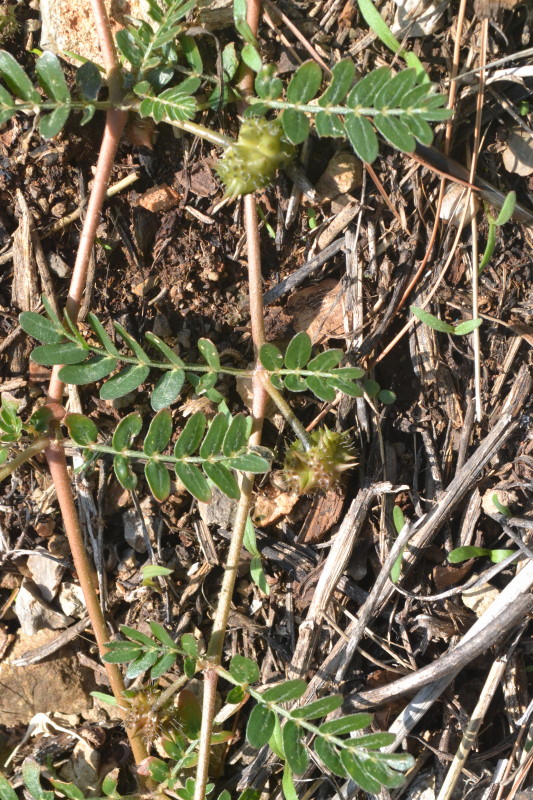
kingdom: Plantae
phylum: Tracheophyta
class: Magnoliopsida
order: Zygophyllales
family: Zygophyllaceae
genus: Tribulus
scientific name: Tribulus terrestris
